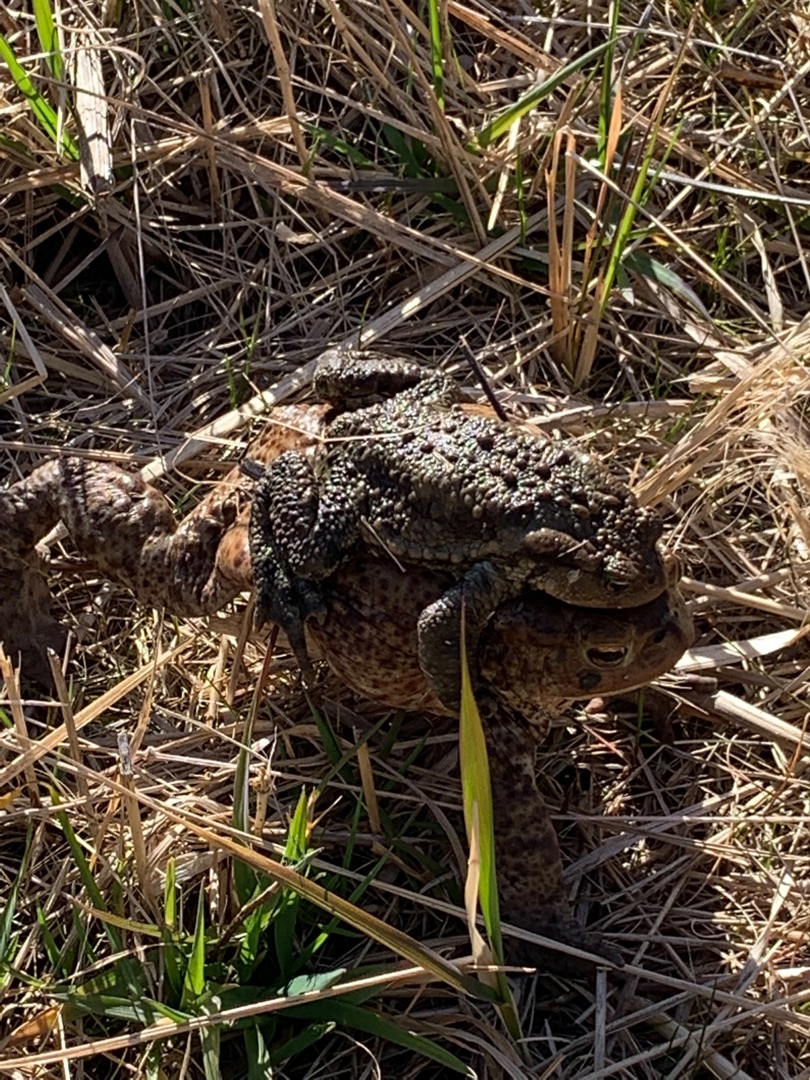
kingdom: Animalia
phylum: Chordata
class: Amphibia
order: Anura
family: Bufonidae
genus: Bufo
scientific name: Bufo bufo
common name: Skrubtudse
